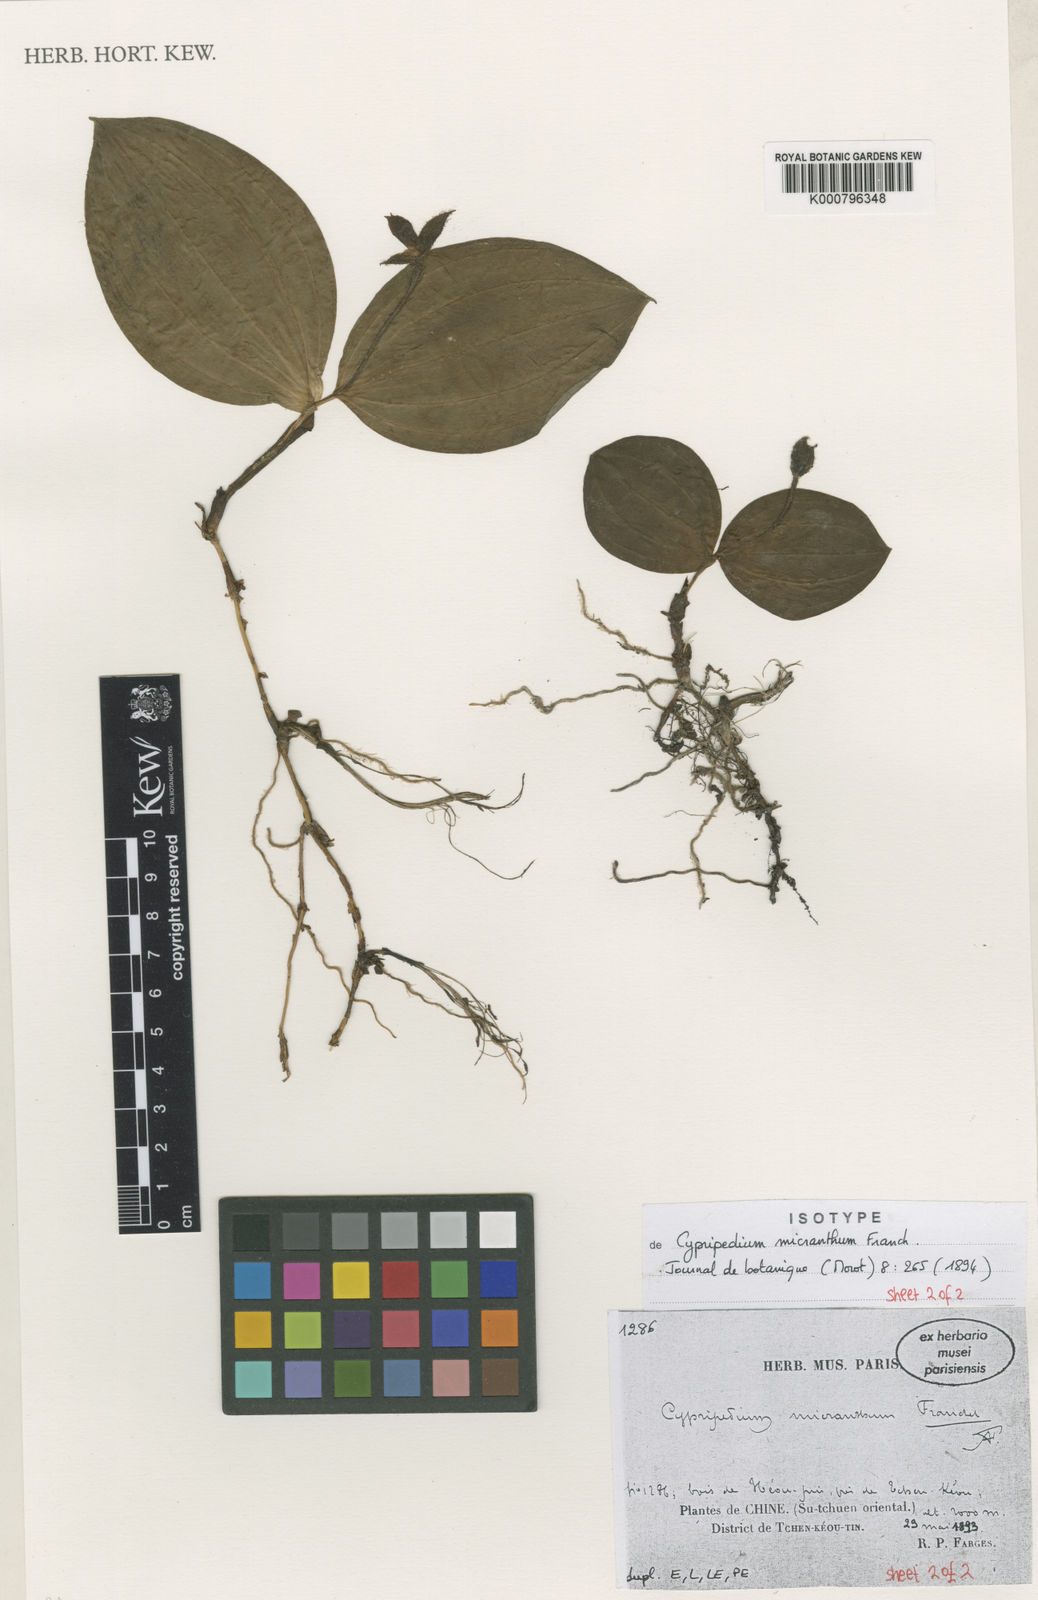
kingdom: Plantae
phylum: Tracheophyta
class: Liliopsida
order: Asparagales
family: Orchidaceae
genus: Cypripedium
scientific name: Cypripedium micranthum
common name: Small flowered cypripedium
